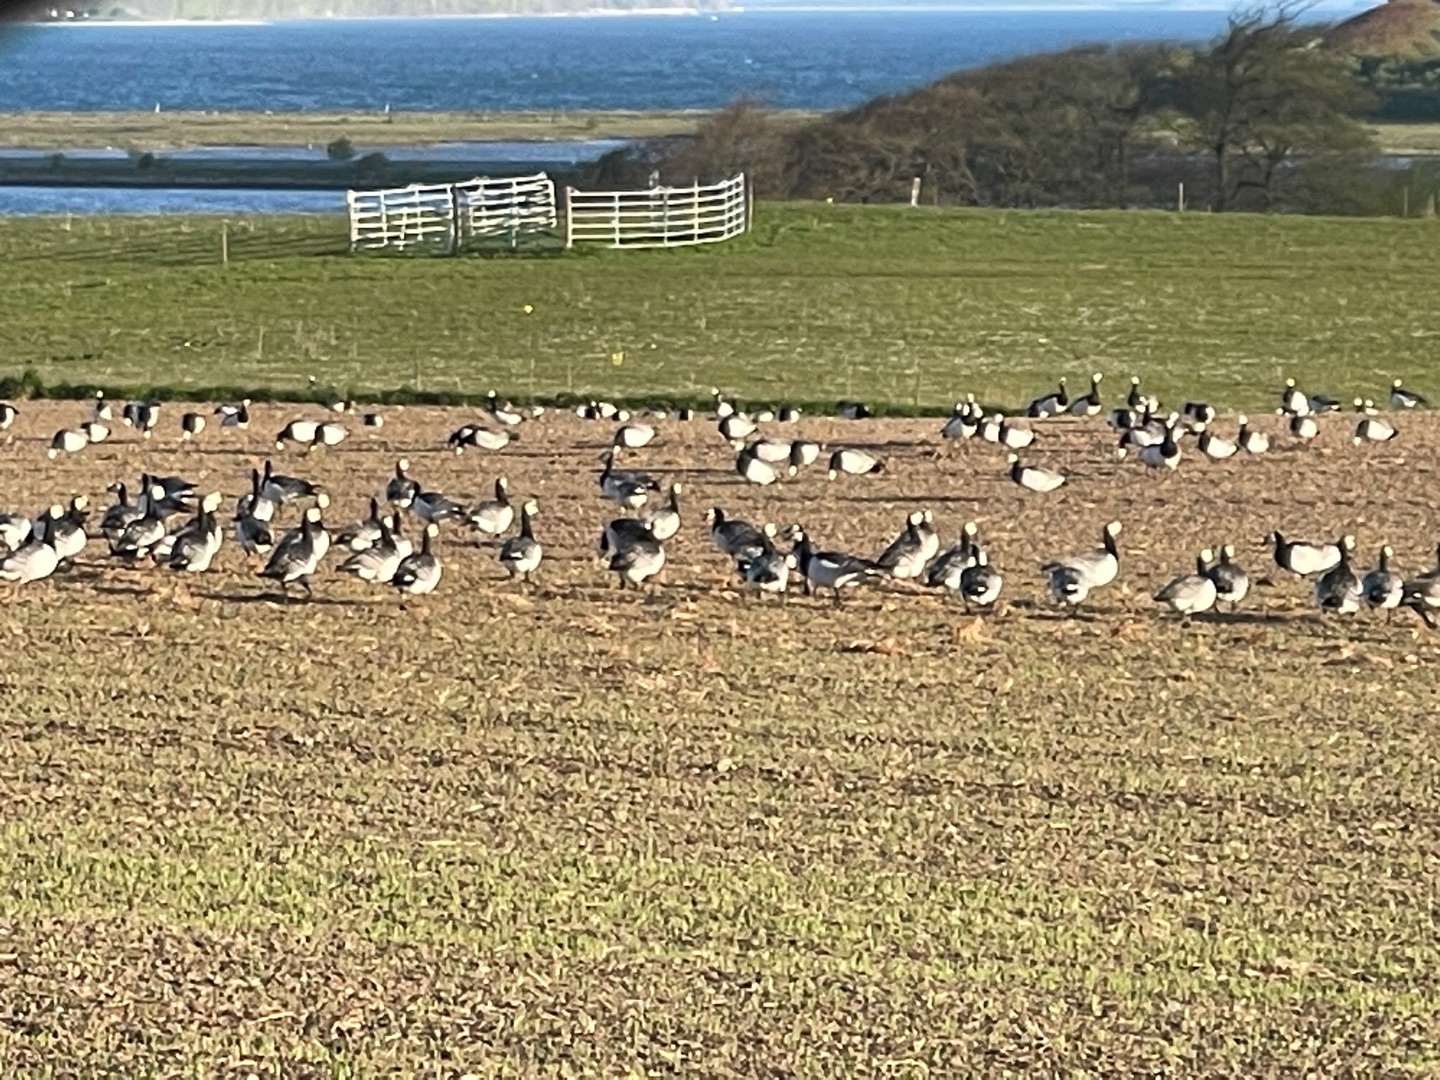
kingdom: Animalia
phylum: Chordata
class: Aves
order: Anseriformes
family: Anatidae
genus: Branta
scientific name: Branta leucopsis
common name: Bramgås
